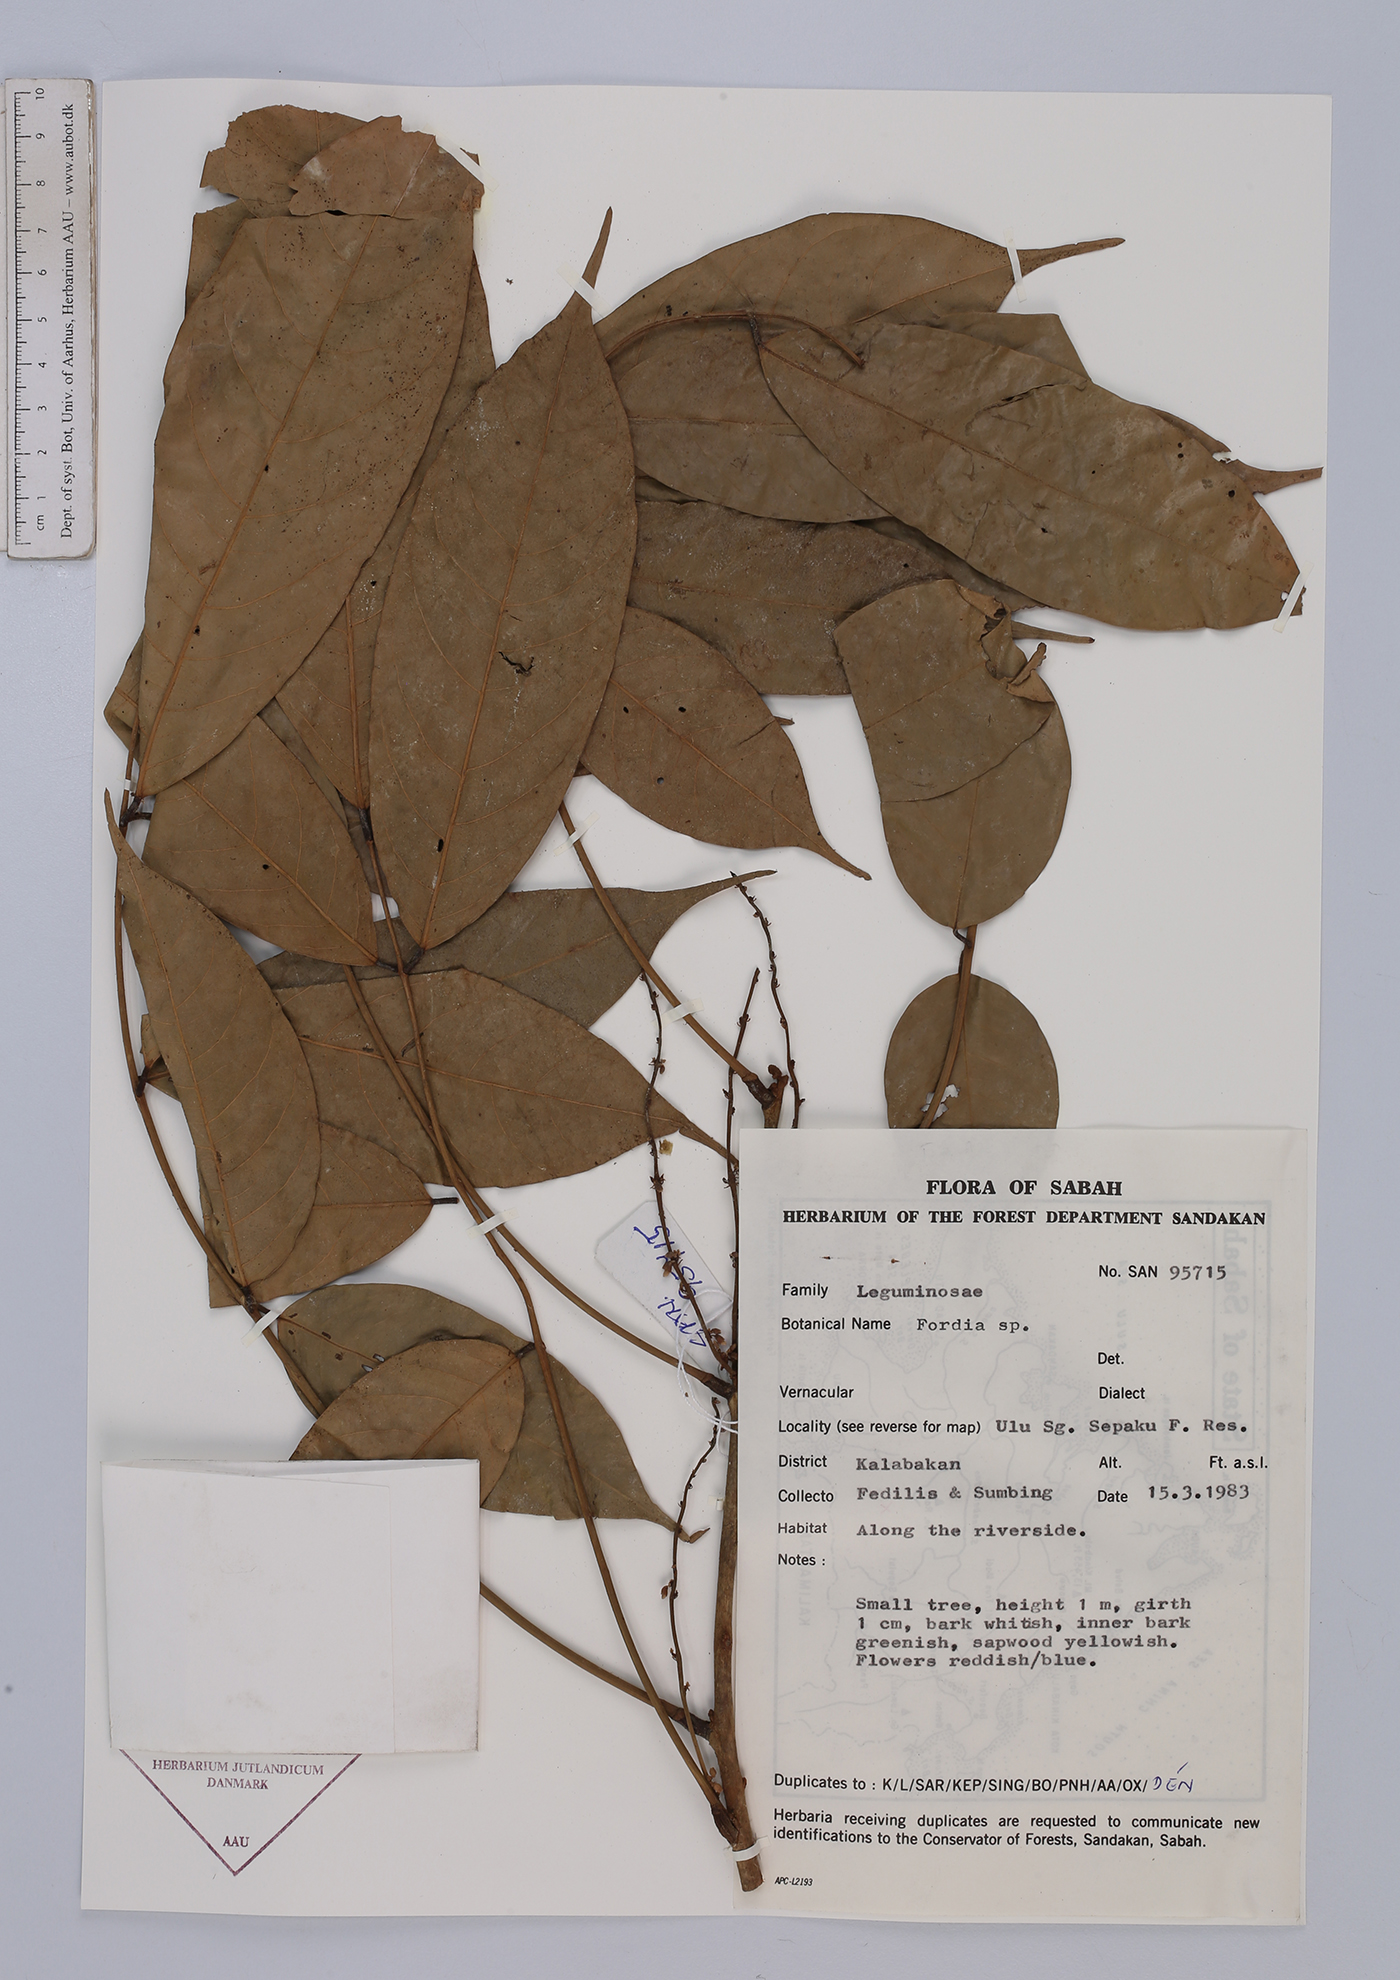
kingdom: Plantae
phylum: Tracheophyta
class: Magnoliopsida
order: Fabales
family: Fabaceae
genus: Fordia
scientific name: Fordia
